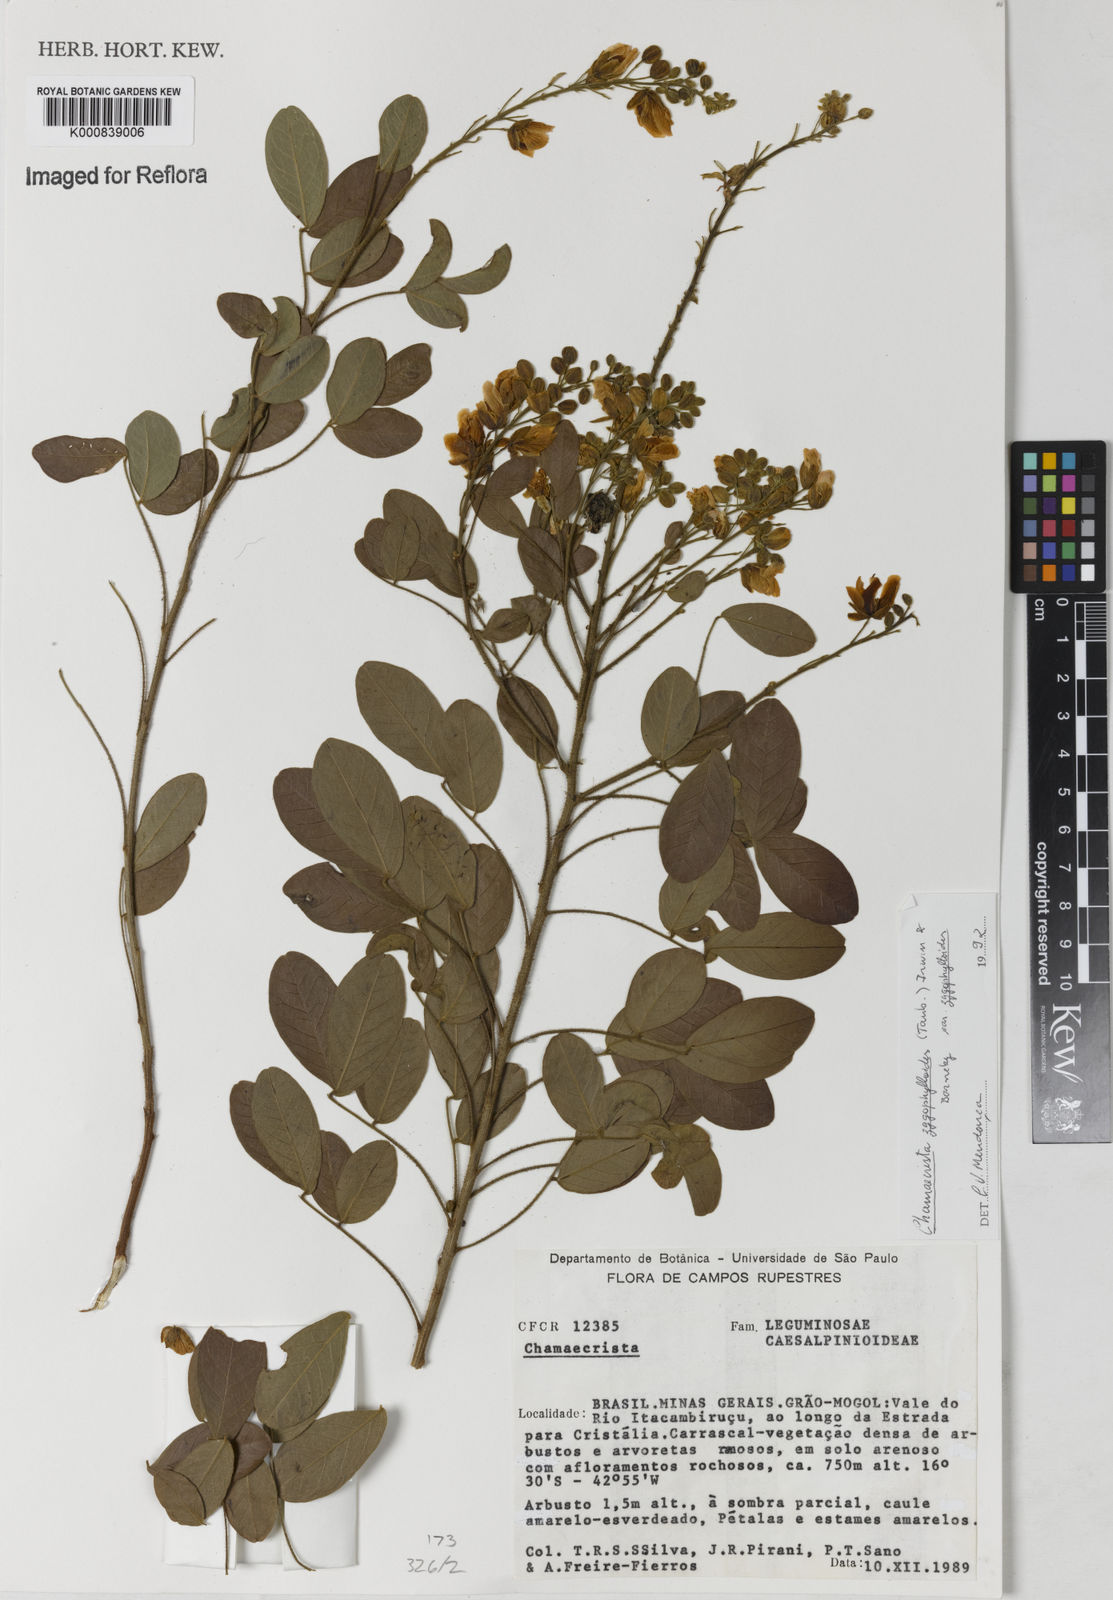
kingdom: Plantae
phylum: Tracheophyta
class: Magnoliopsida
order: Fabales
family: Fabaceae
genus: Chamaecrista
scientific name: Chamaecrista zygophylloides
